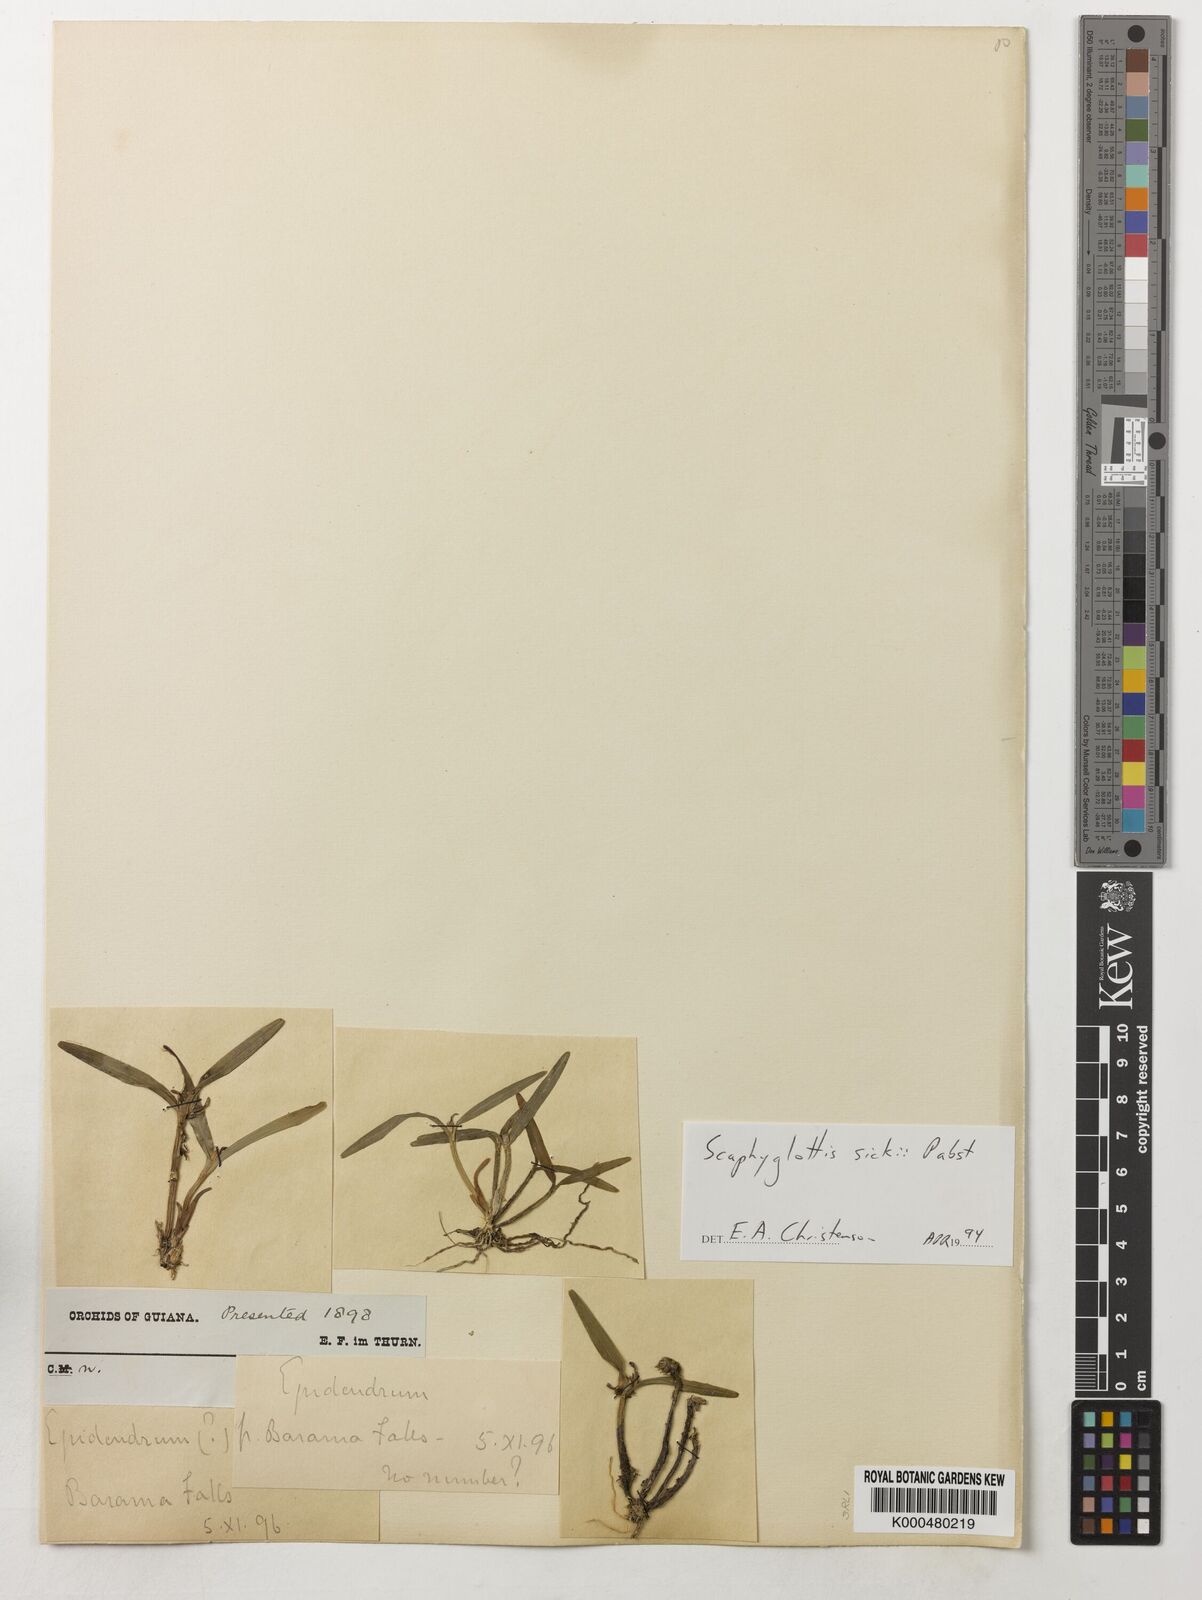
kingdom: Plantae
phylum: Tracheophyta
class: Liliopsida
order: Asparagales
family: Orchidaceae
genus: Scaphyglottis
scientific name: Scaphyglottis sickii
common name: Sicks scaphyglottis
